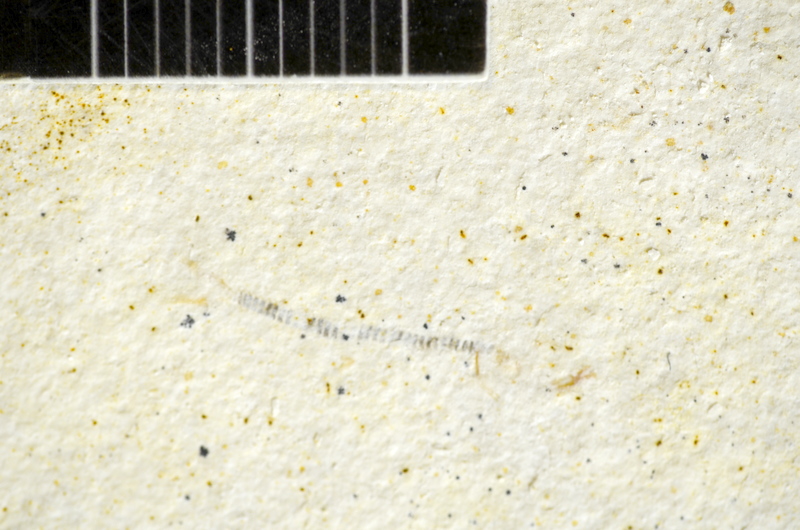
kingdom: Animalia
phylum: Chordata
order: Salmoniformes
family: Orthogonikleithridae
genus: Orthogonikleithrus
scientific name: Orthogonikleithrus hoelli
